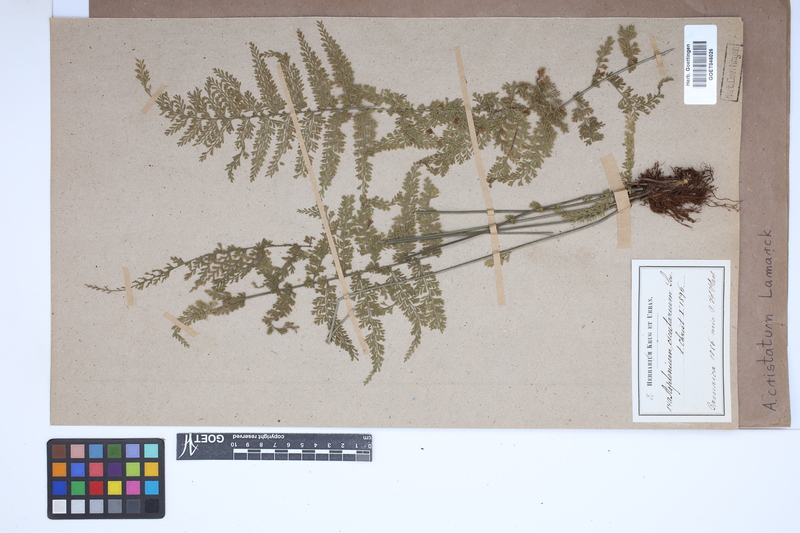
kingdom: Plantae
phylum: Tracheophyta
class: Polypodiopsida
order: Polypodiales
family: Aspleniaceae
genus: Asplenium
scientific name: Asplenium cristatum
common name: Parsley spleenwort
